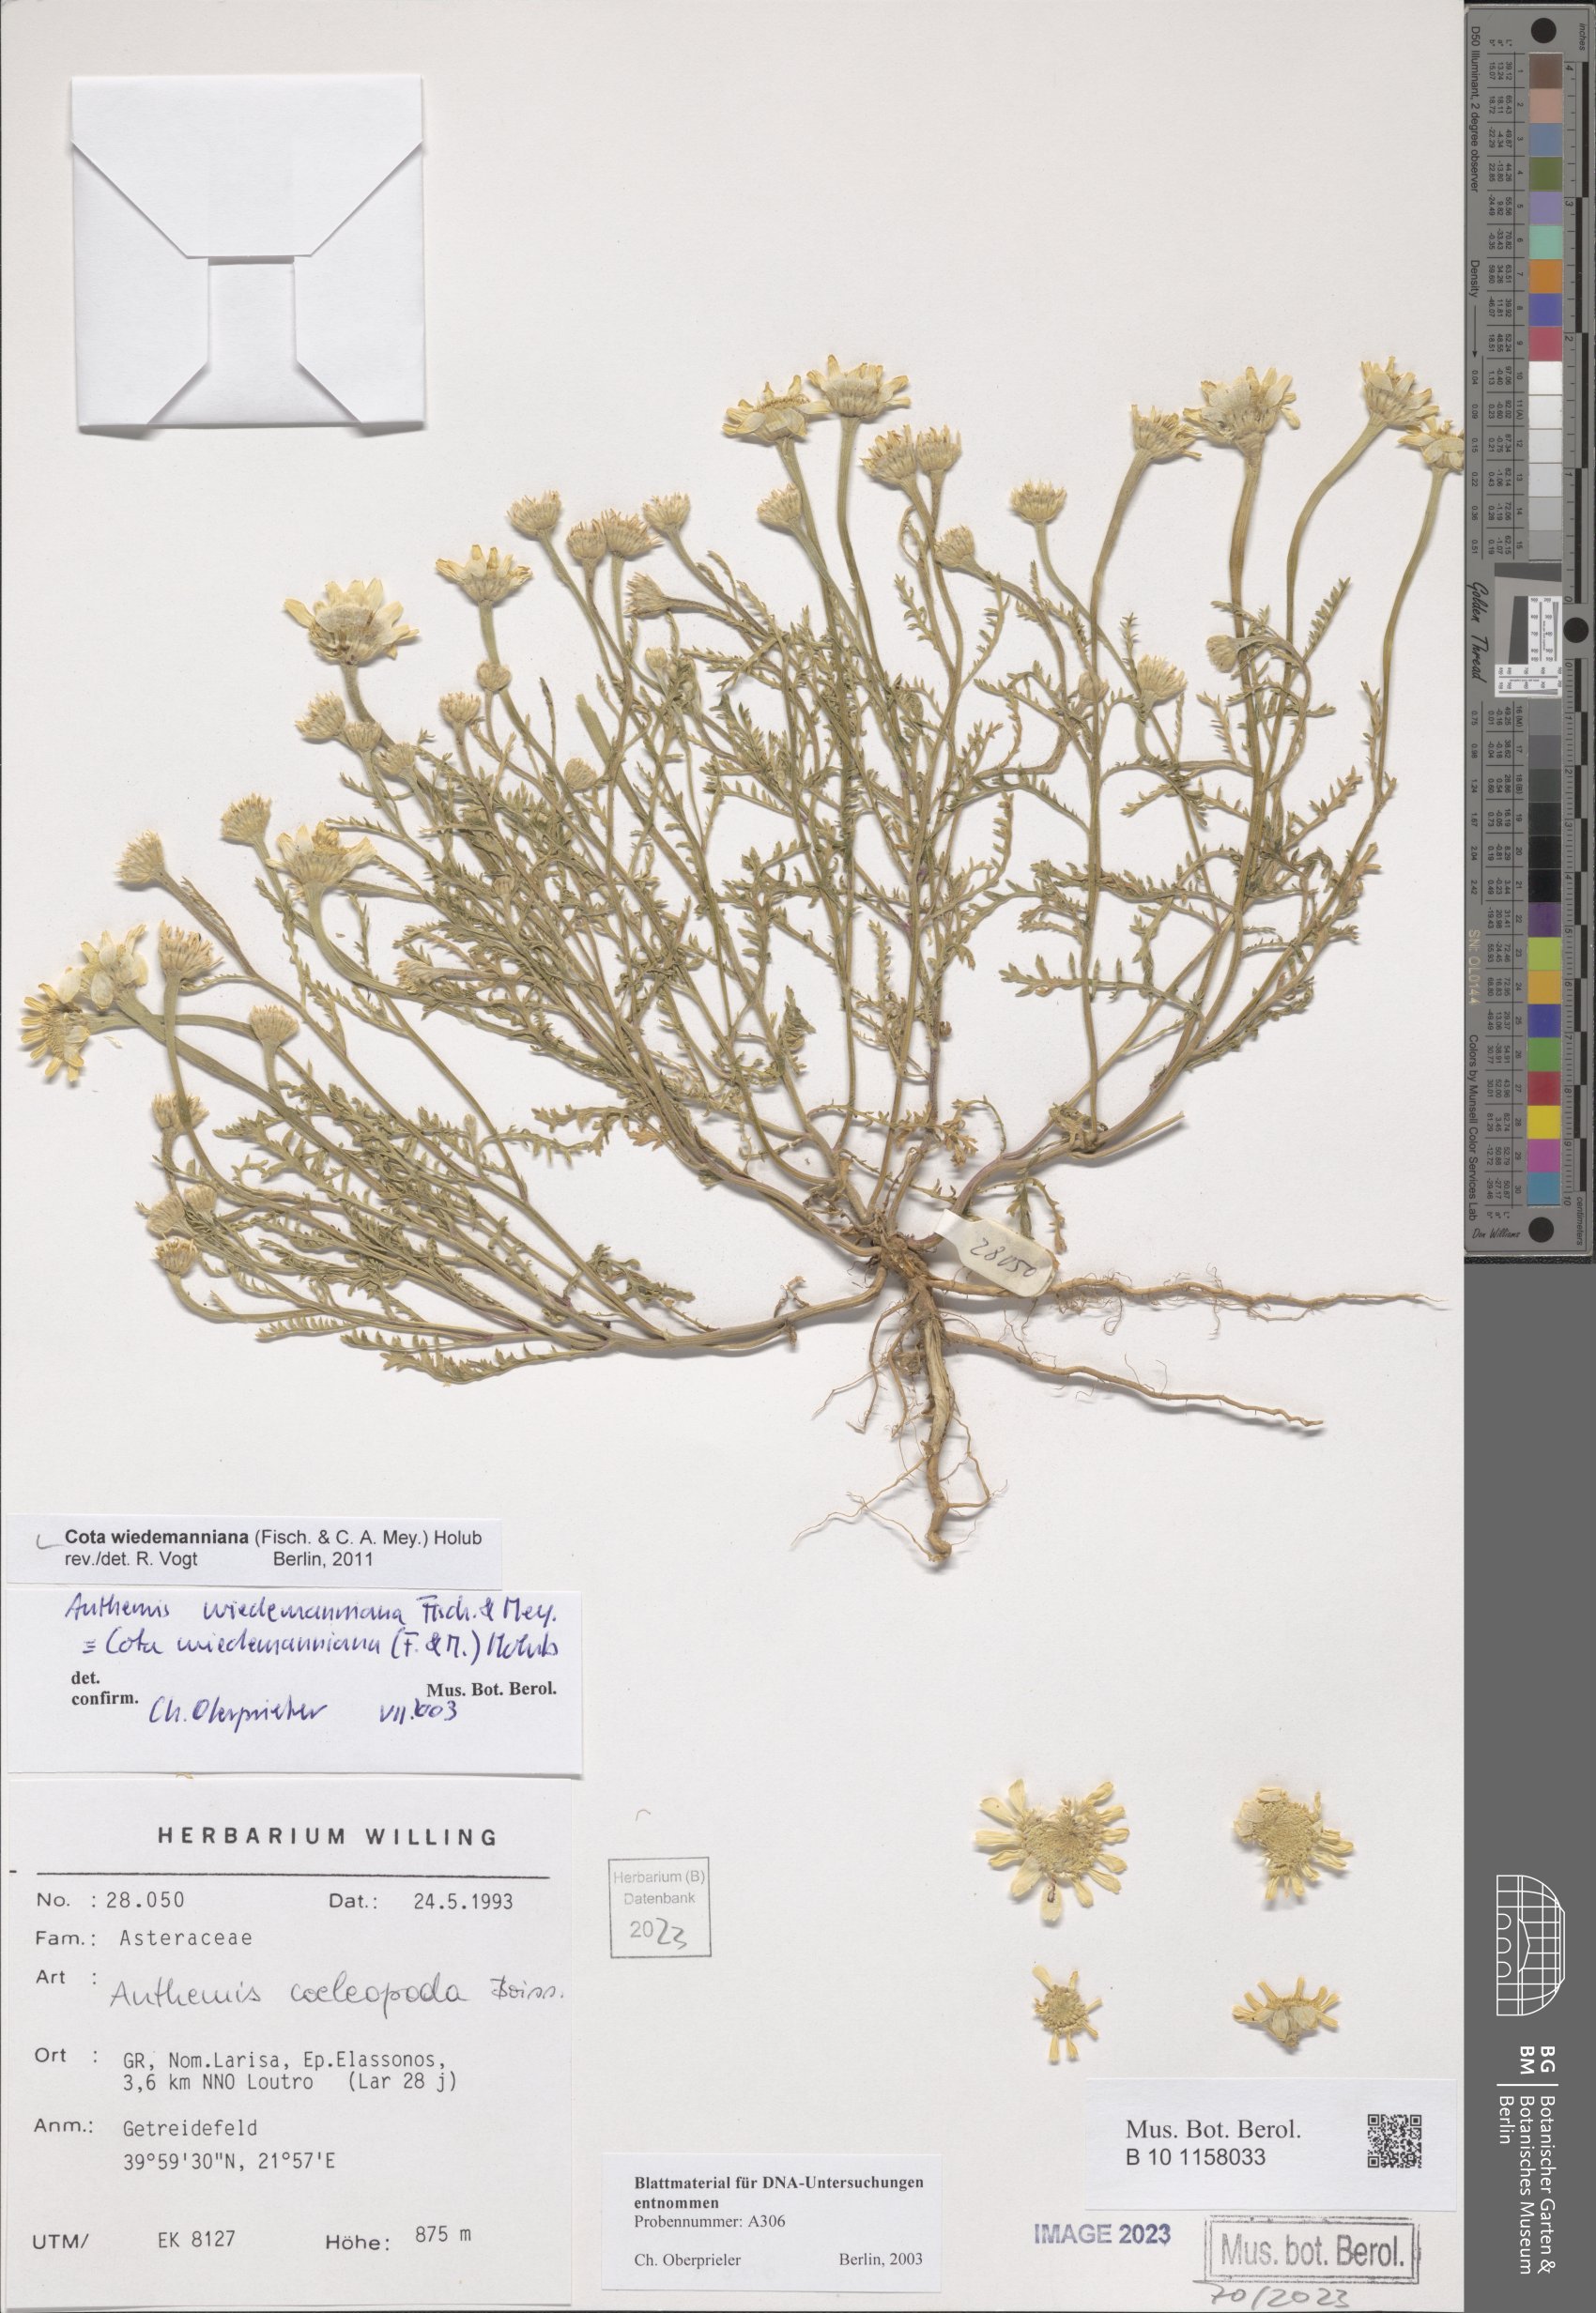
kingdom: Plantae
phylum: Tracheophyta
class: Magnoliopsida
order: Asterales
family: Asteraceae
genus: Cota
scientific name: Cota wiedemanniana
